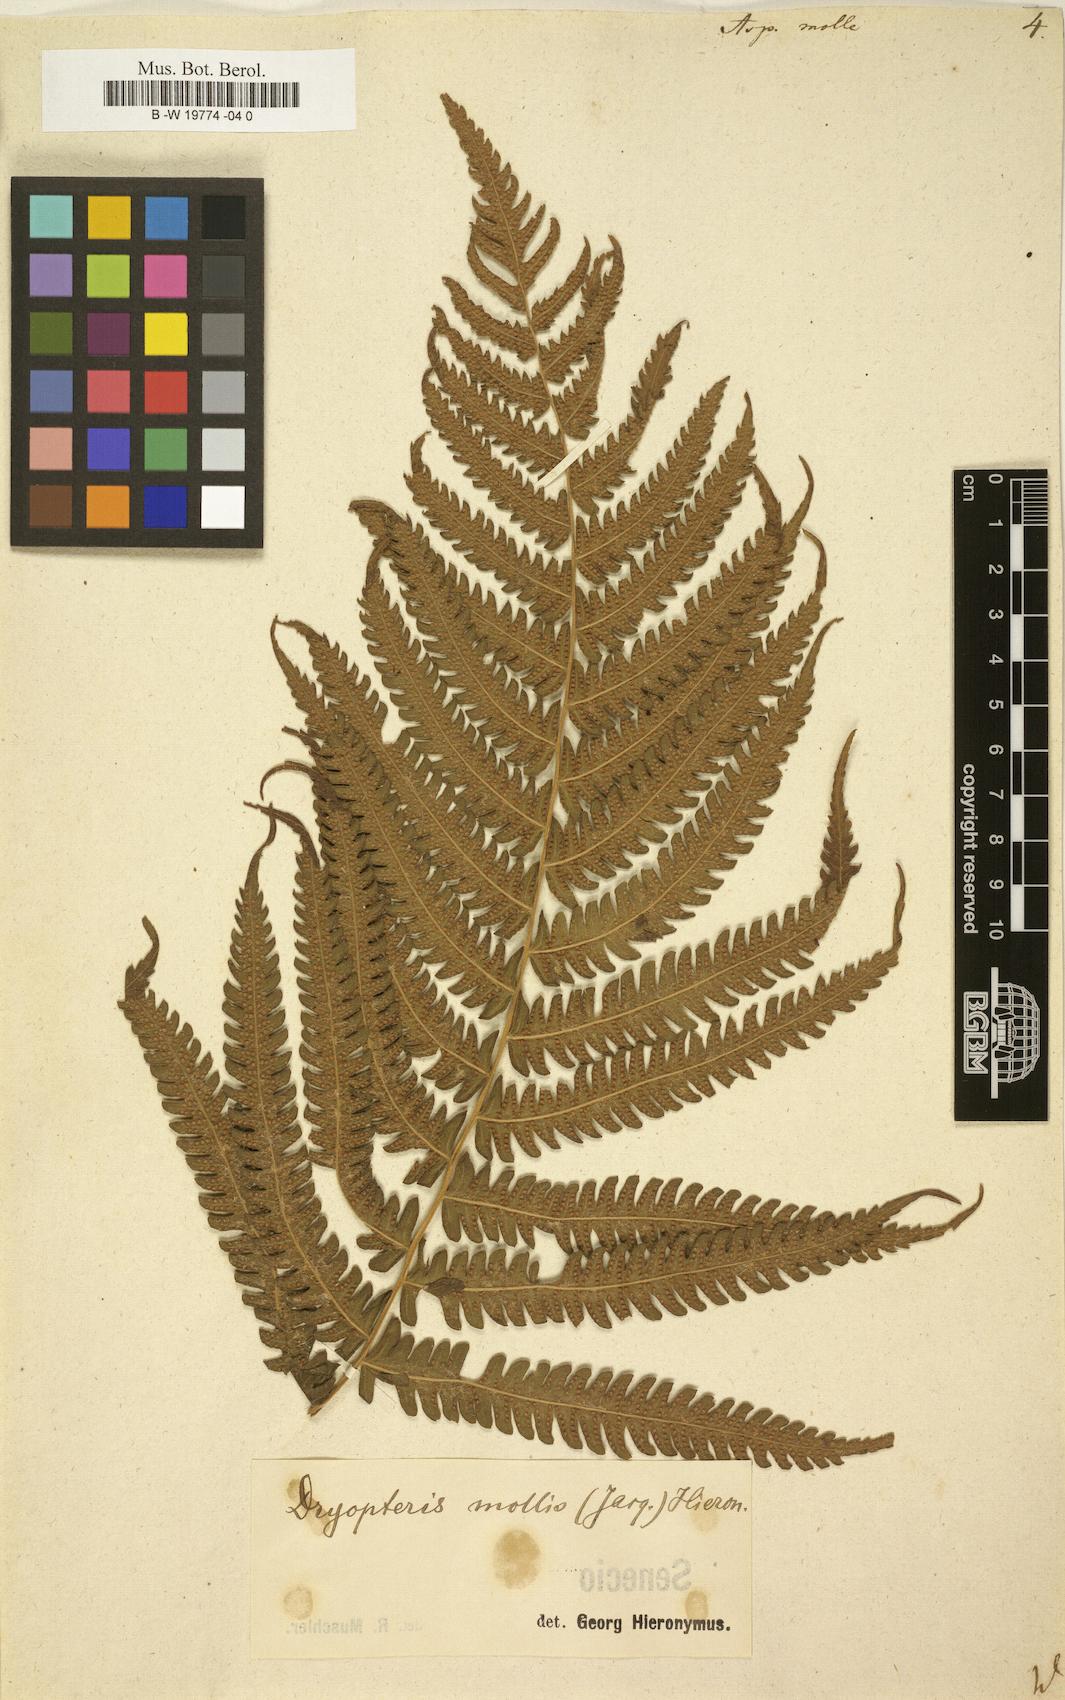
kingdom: Plantae
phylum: Tracheophyta
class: Polypodiopsida
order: Polypodiales
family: Thelypteridaceae
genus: Christella
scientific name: Christella dentata
